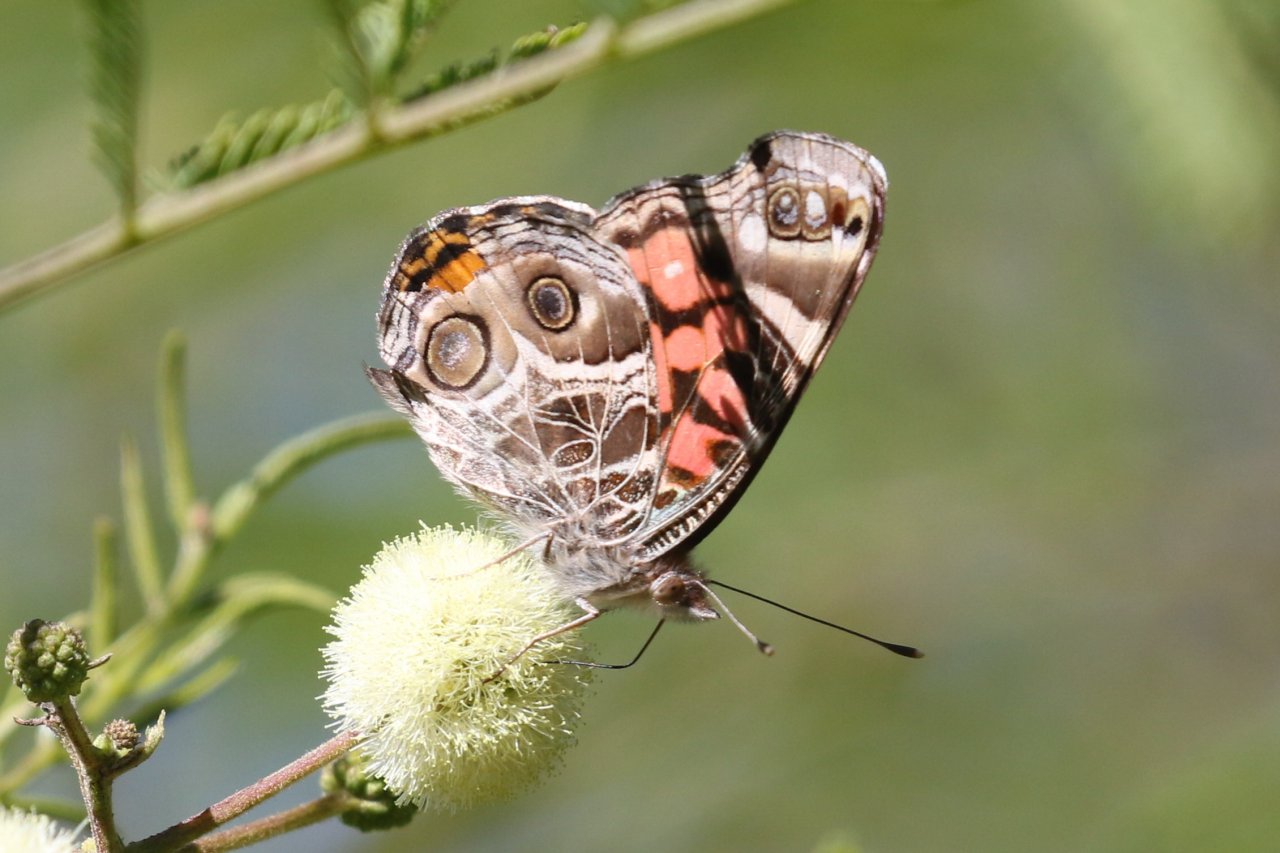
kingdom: Animalia
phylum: Arthropoda
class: Insecta
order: Lepidoptera
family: Nymphalidae
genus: Vanessa
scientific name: Vanessa virginiensis
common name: American Lady
